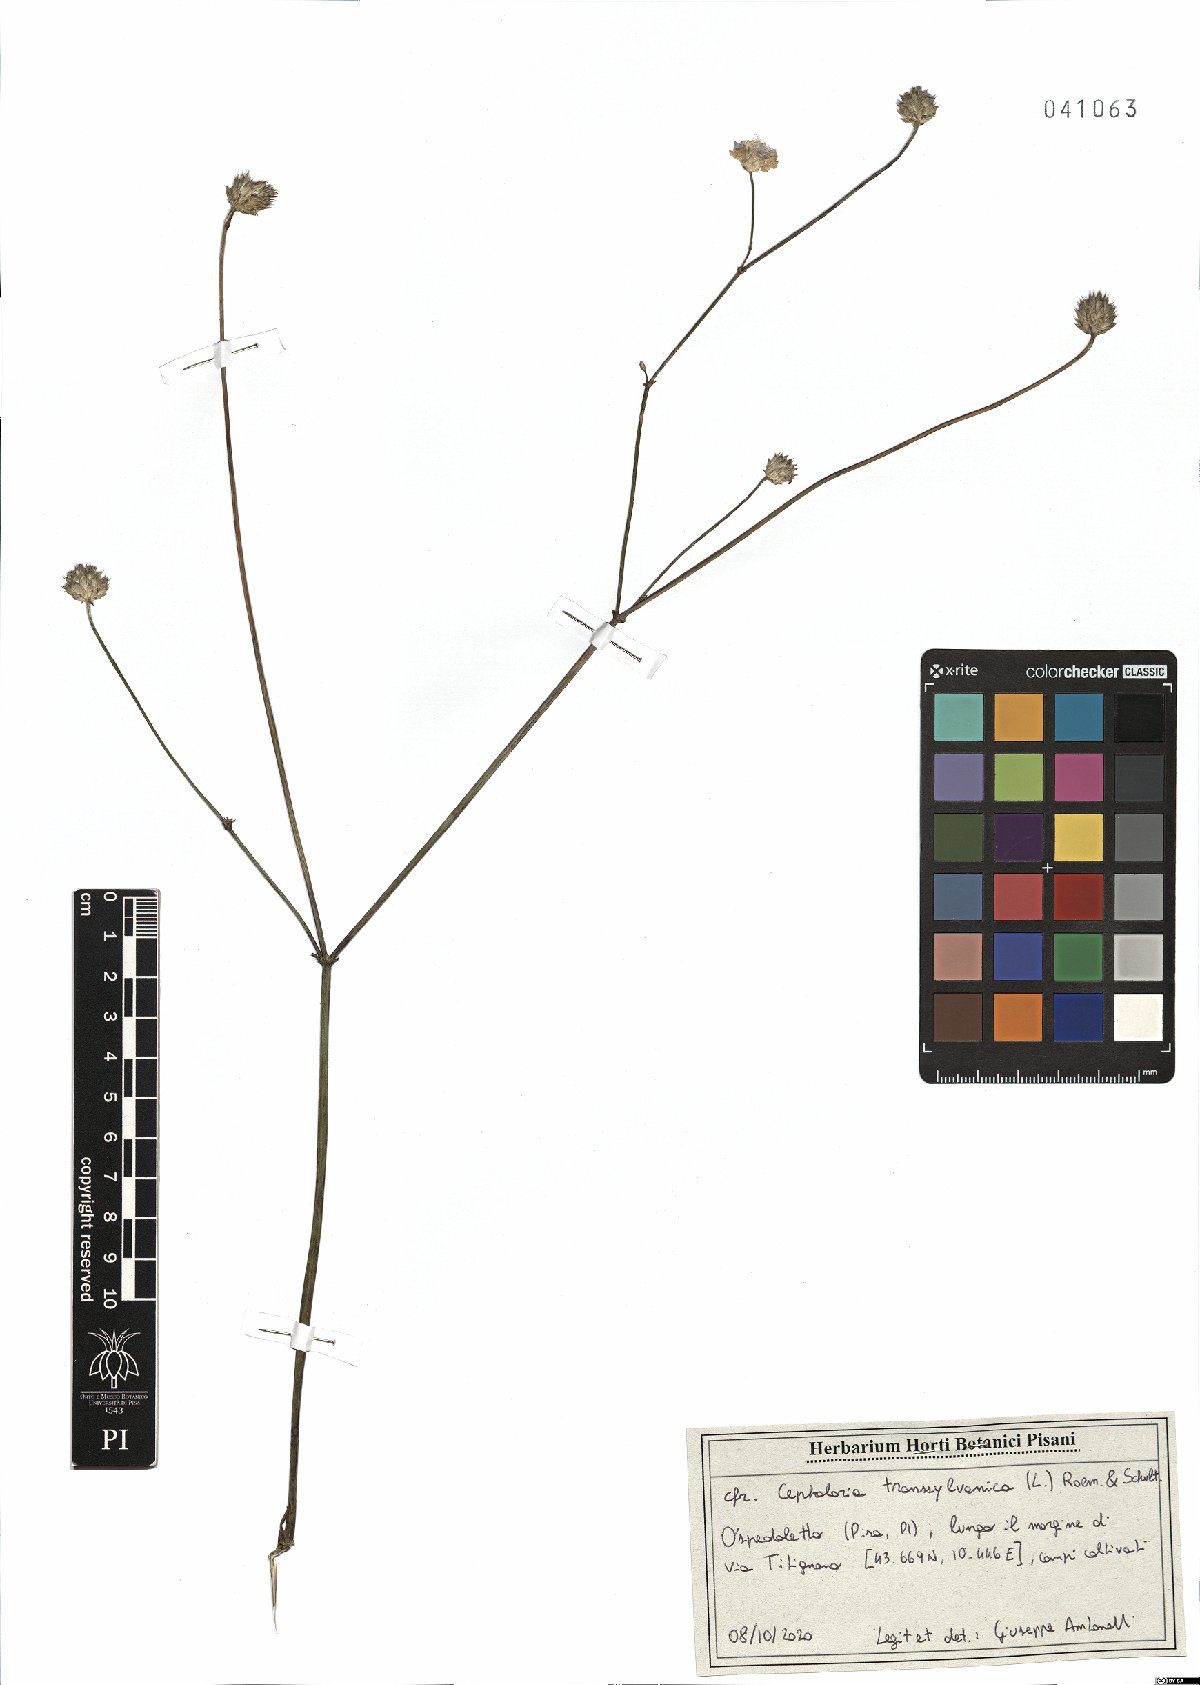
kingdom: Plantae
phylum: Tracheophyta
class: Magnoliopsida
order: Dipsacales
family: Caprifoliaceae
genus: Cephalaria
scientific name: Cephalaria transsylvanica
